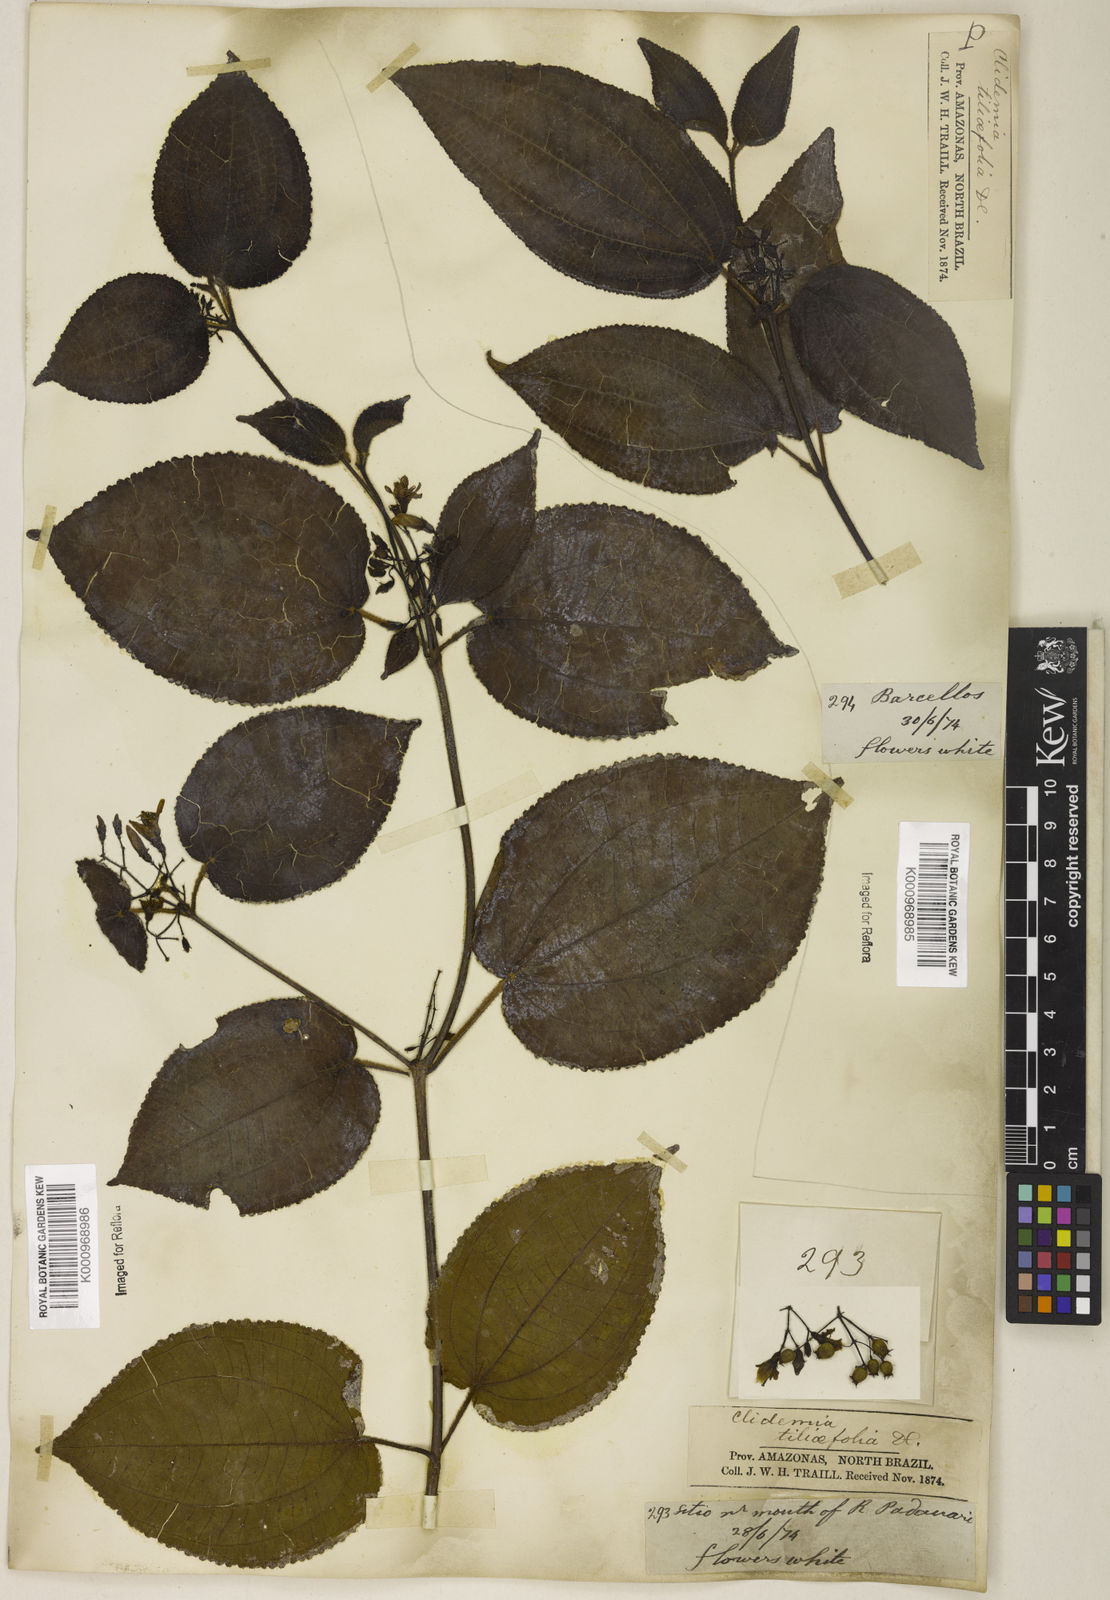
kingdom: Plantae
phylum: Tracheophyta
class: Magnoliopsida
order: Myrtales
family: Melastomataceae
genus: Miconia
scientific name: Miconia crenata
